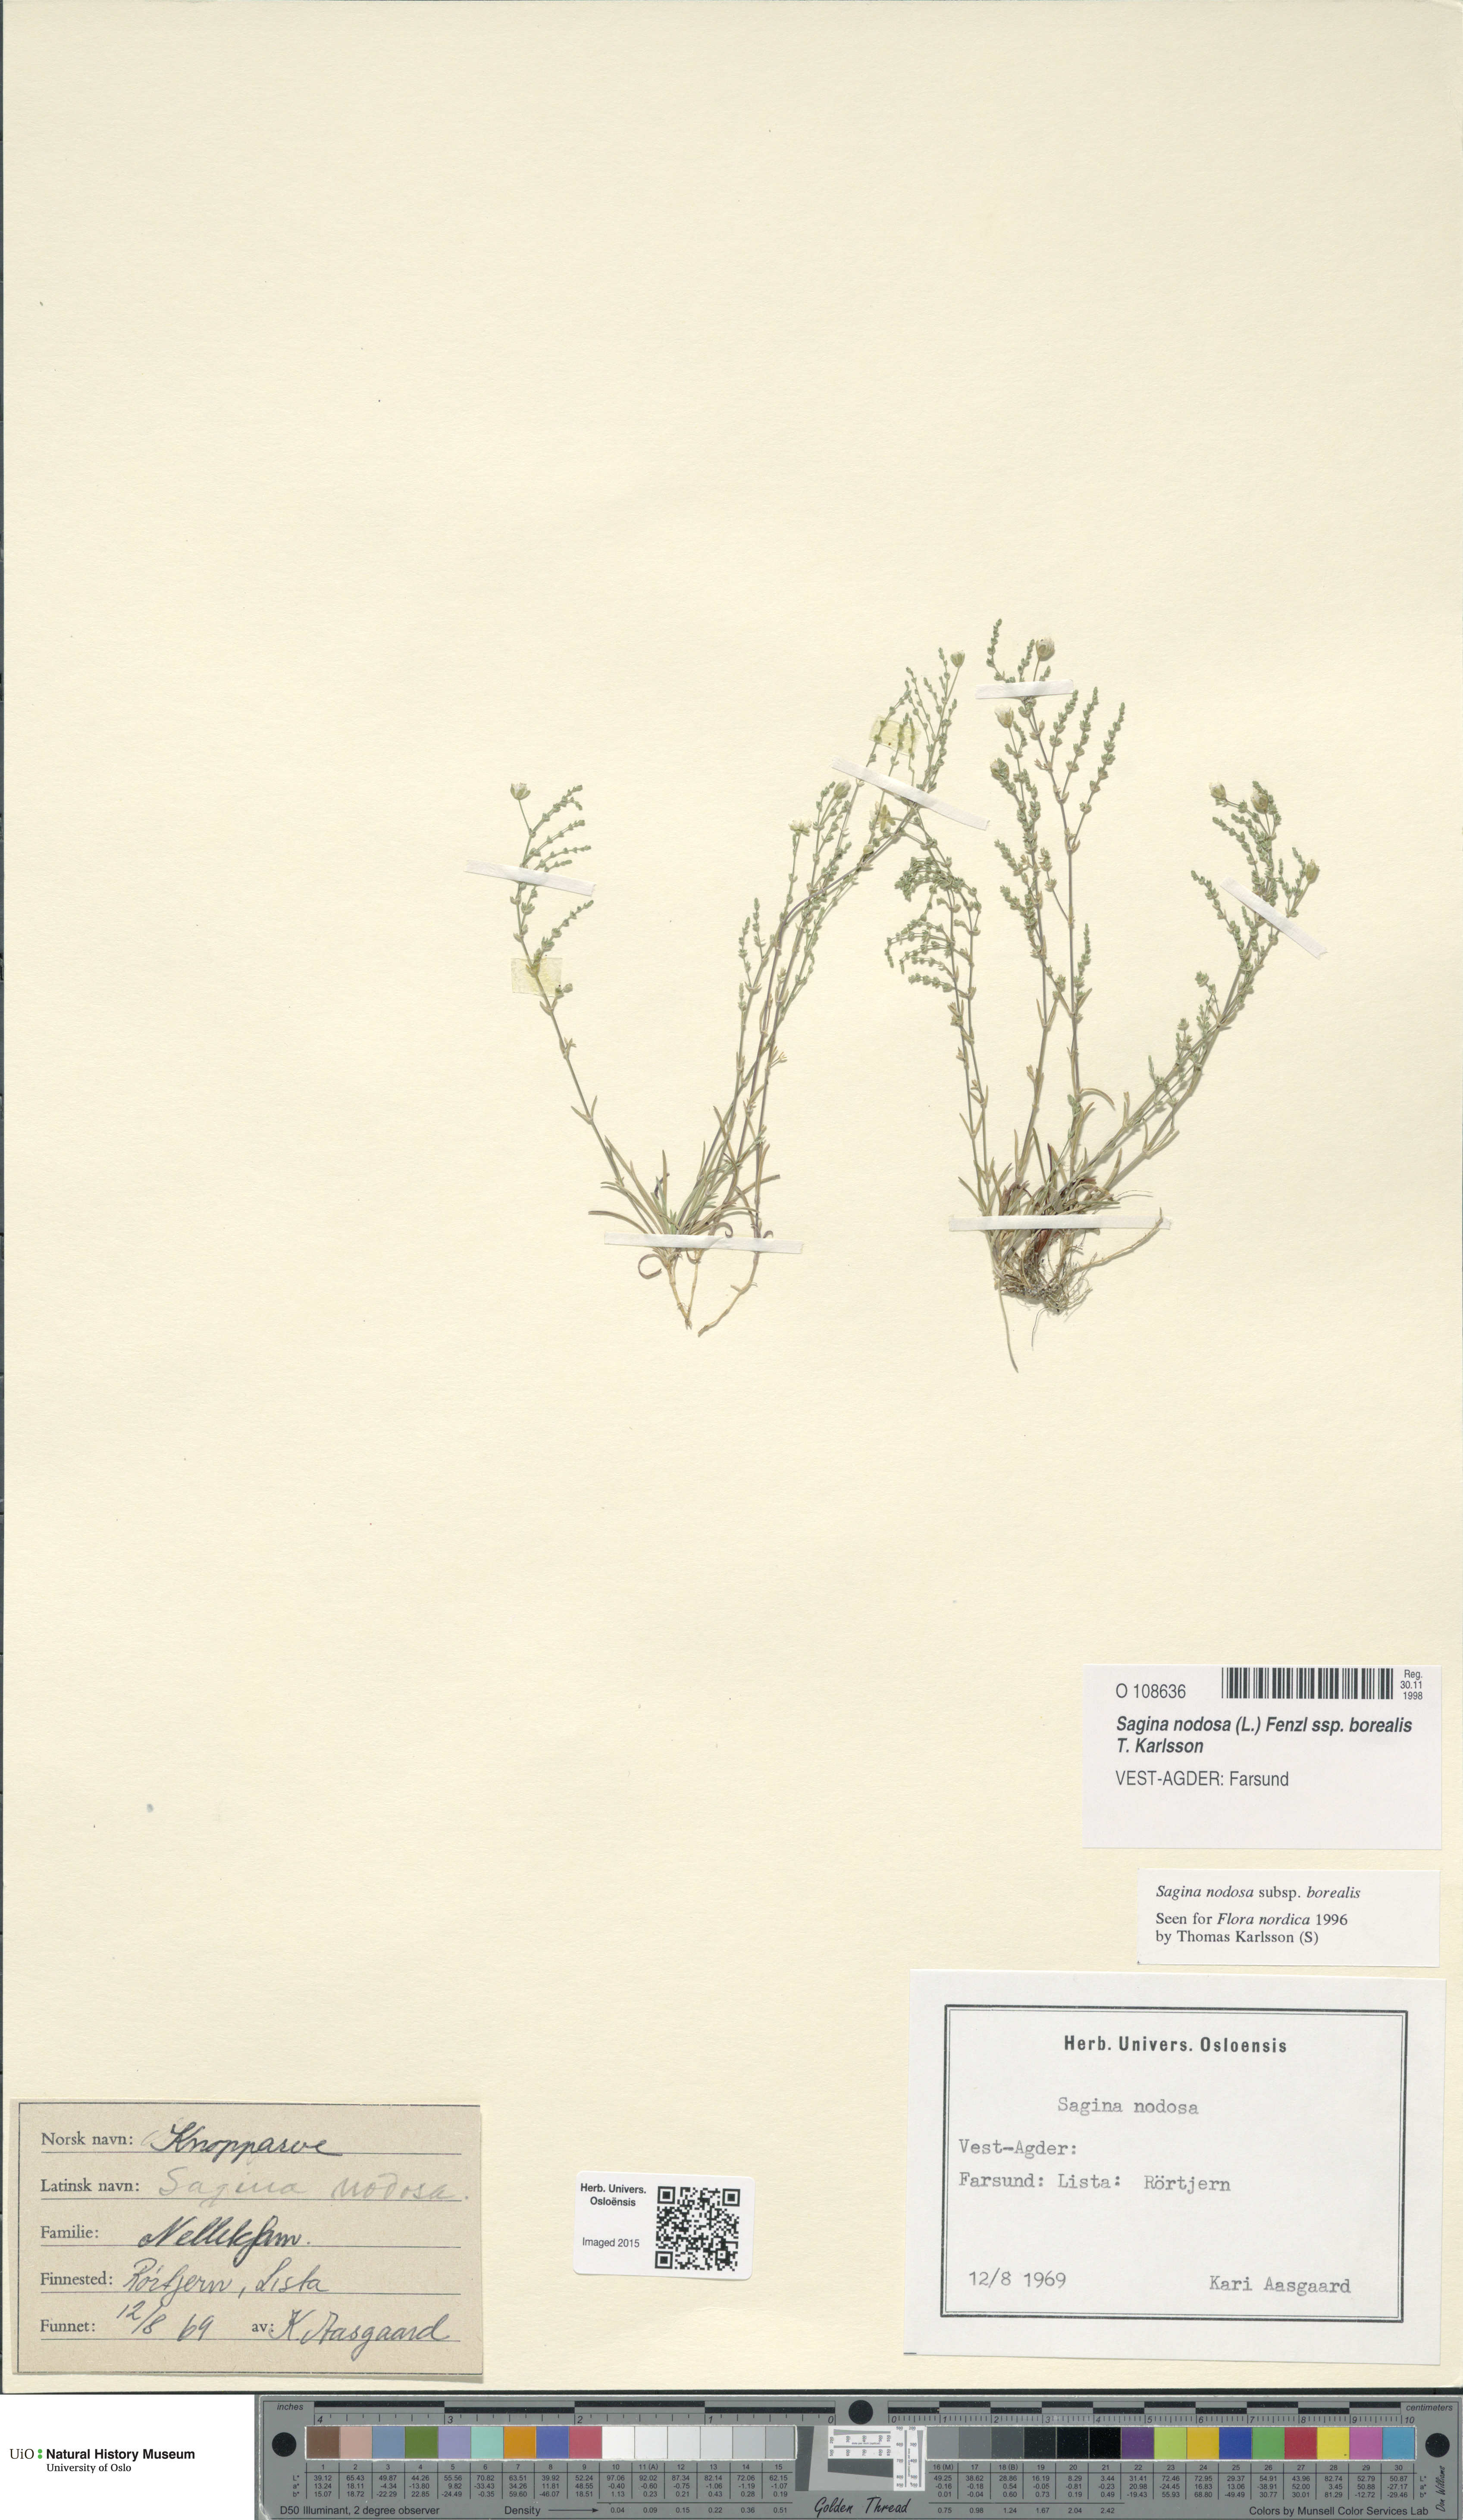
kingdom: Plantae
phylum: Tracheophyta
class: Magnoliopsida
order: Caryophyllales
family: Caryophyllaceae
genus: Sagina
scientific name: Sagina nodosa
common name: Knotted pearlwort
